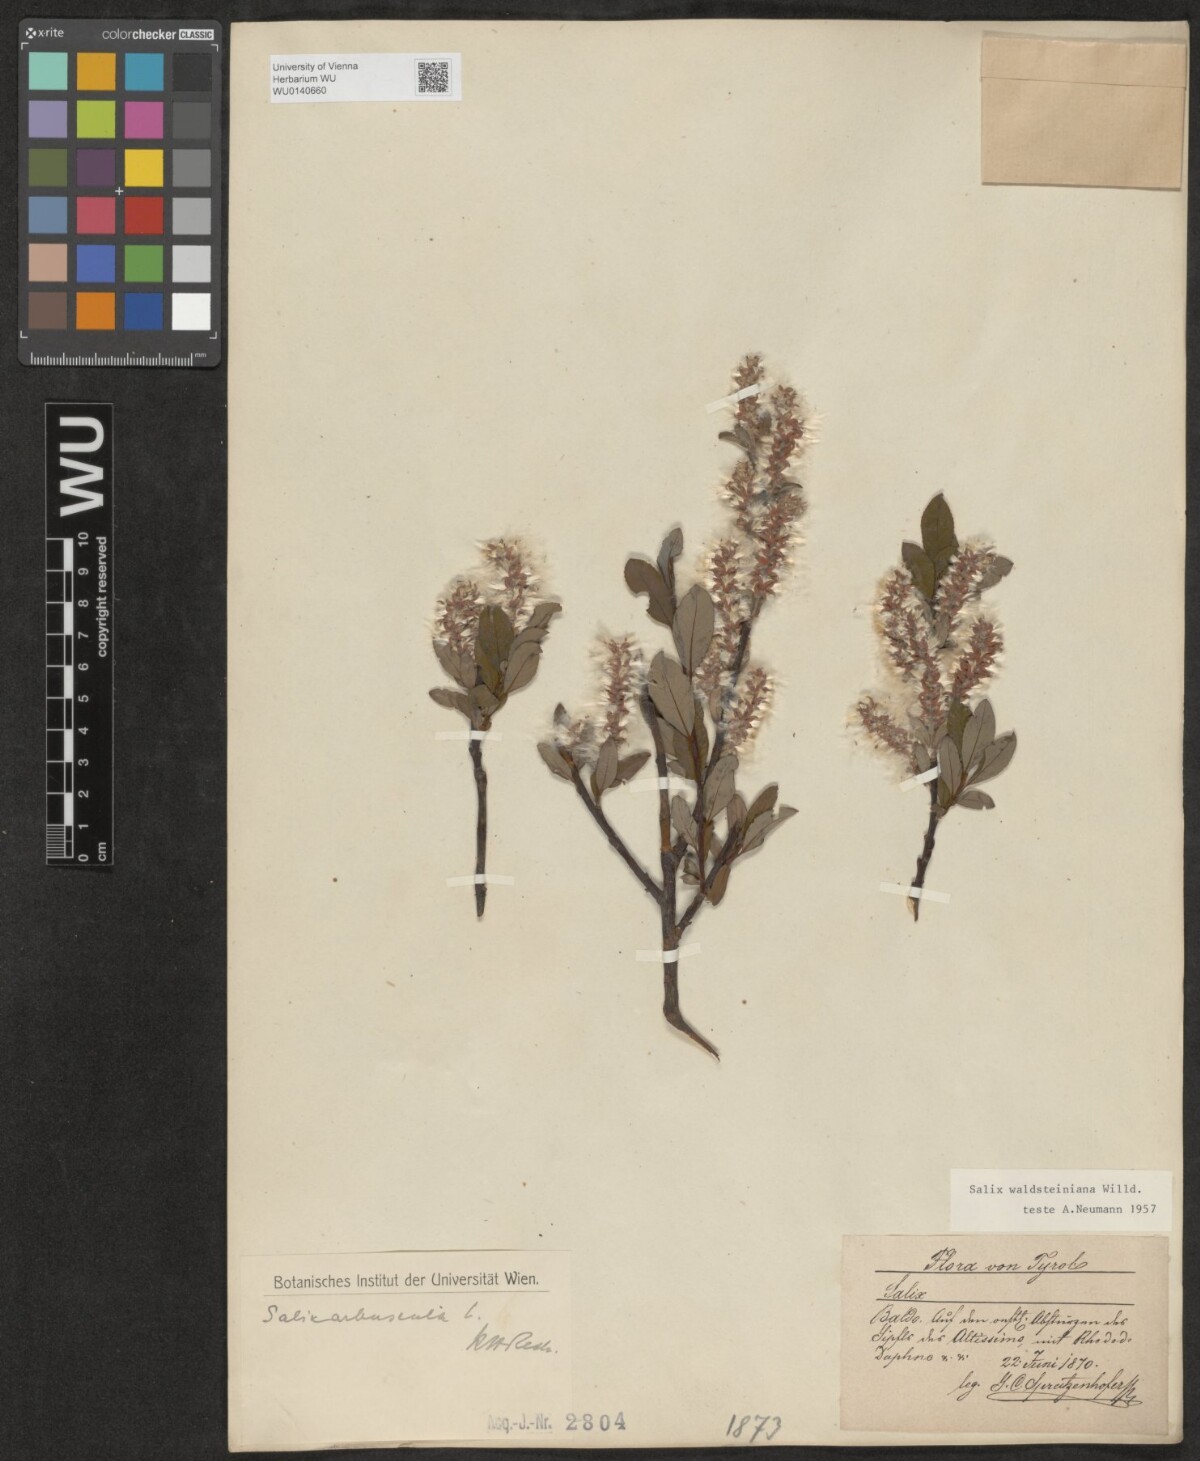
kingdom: Plantae
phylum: Tracheophyta
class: Magnoliopsida
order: Malpighiales
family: Salicaceae
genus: Salix
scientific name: Salix waldsteiniana
